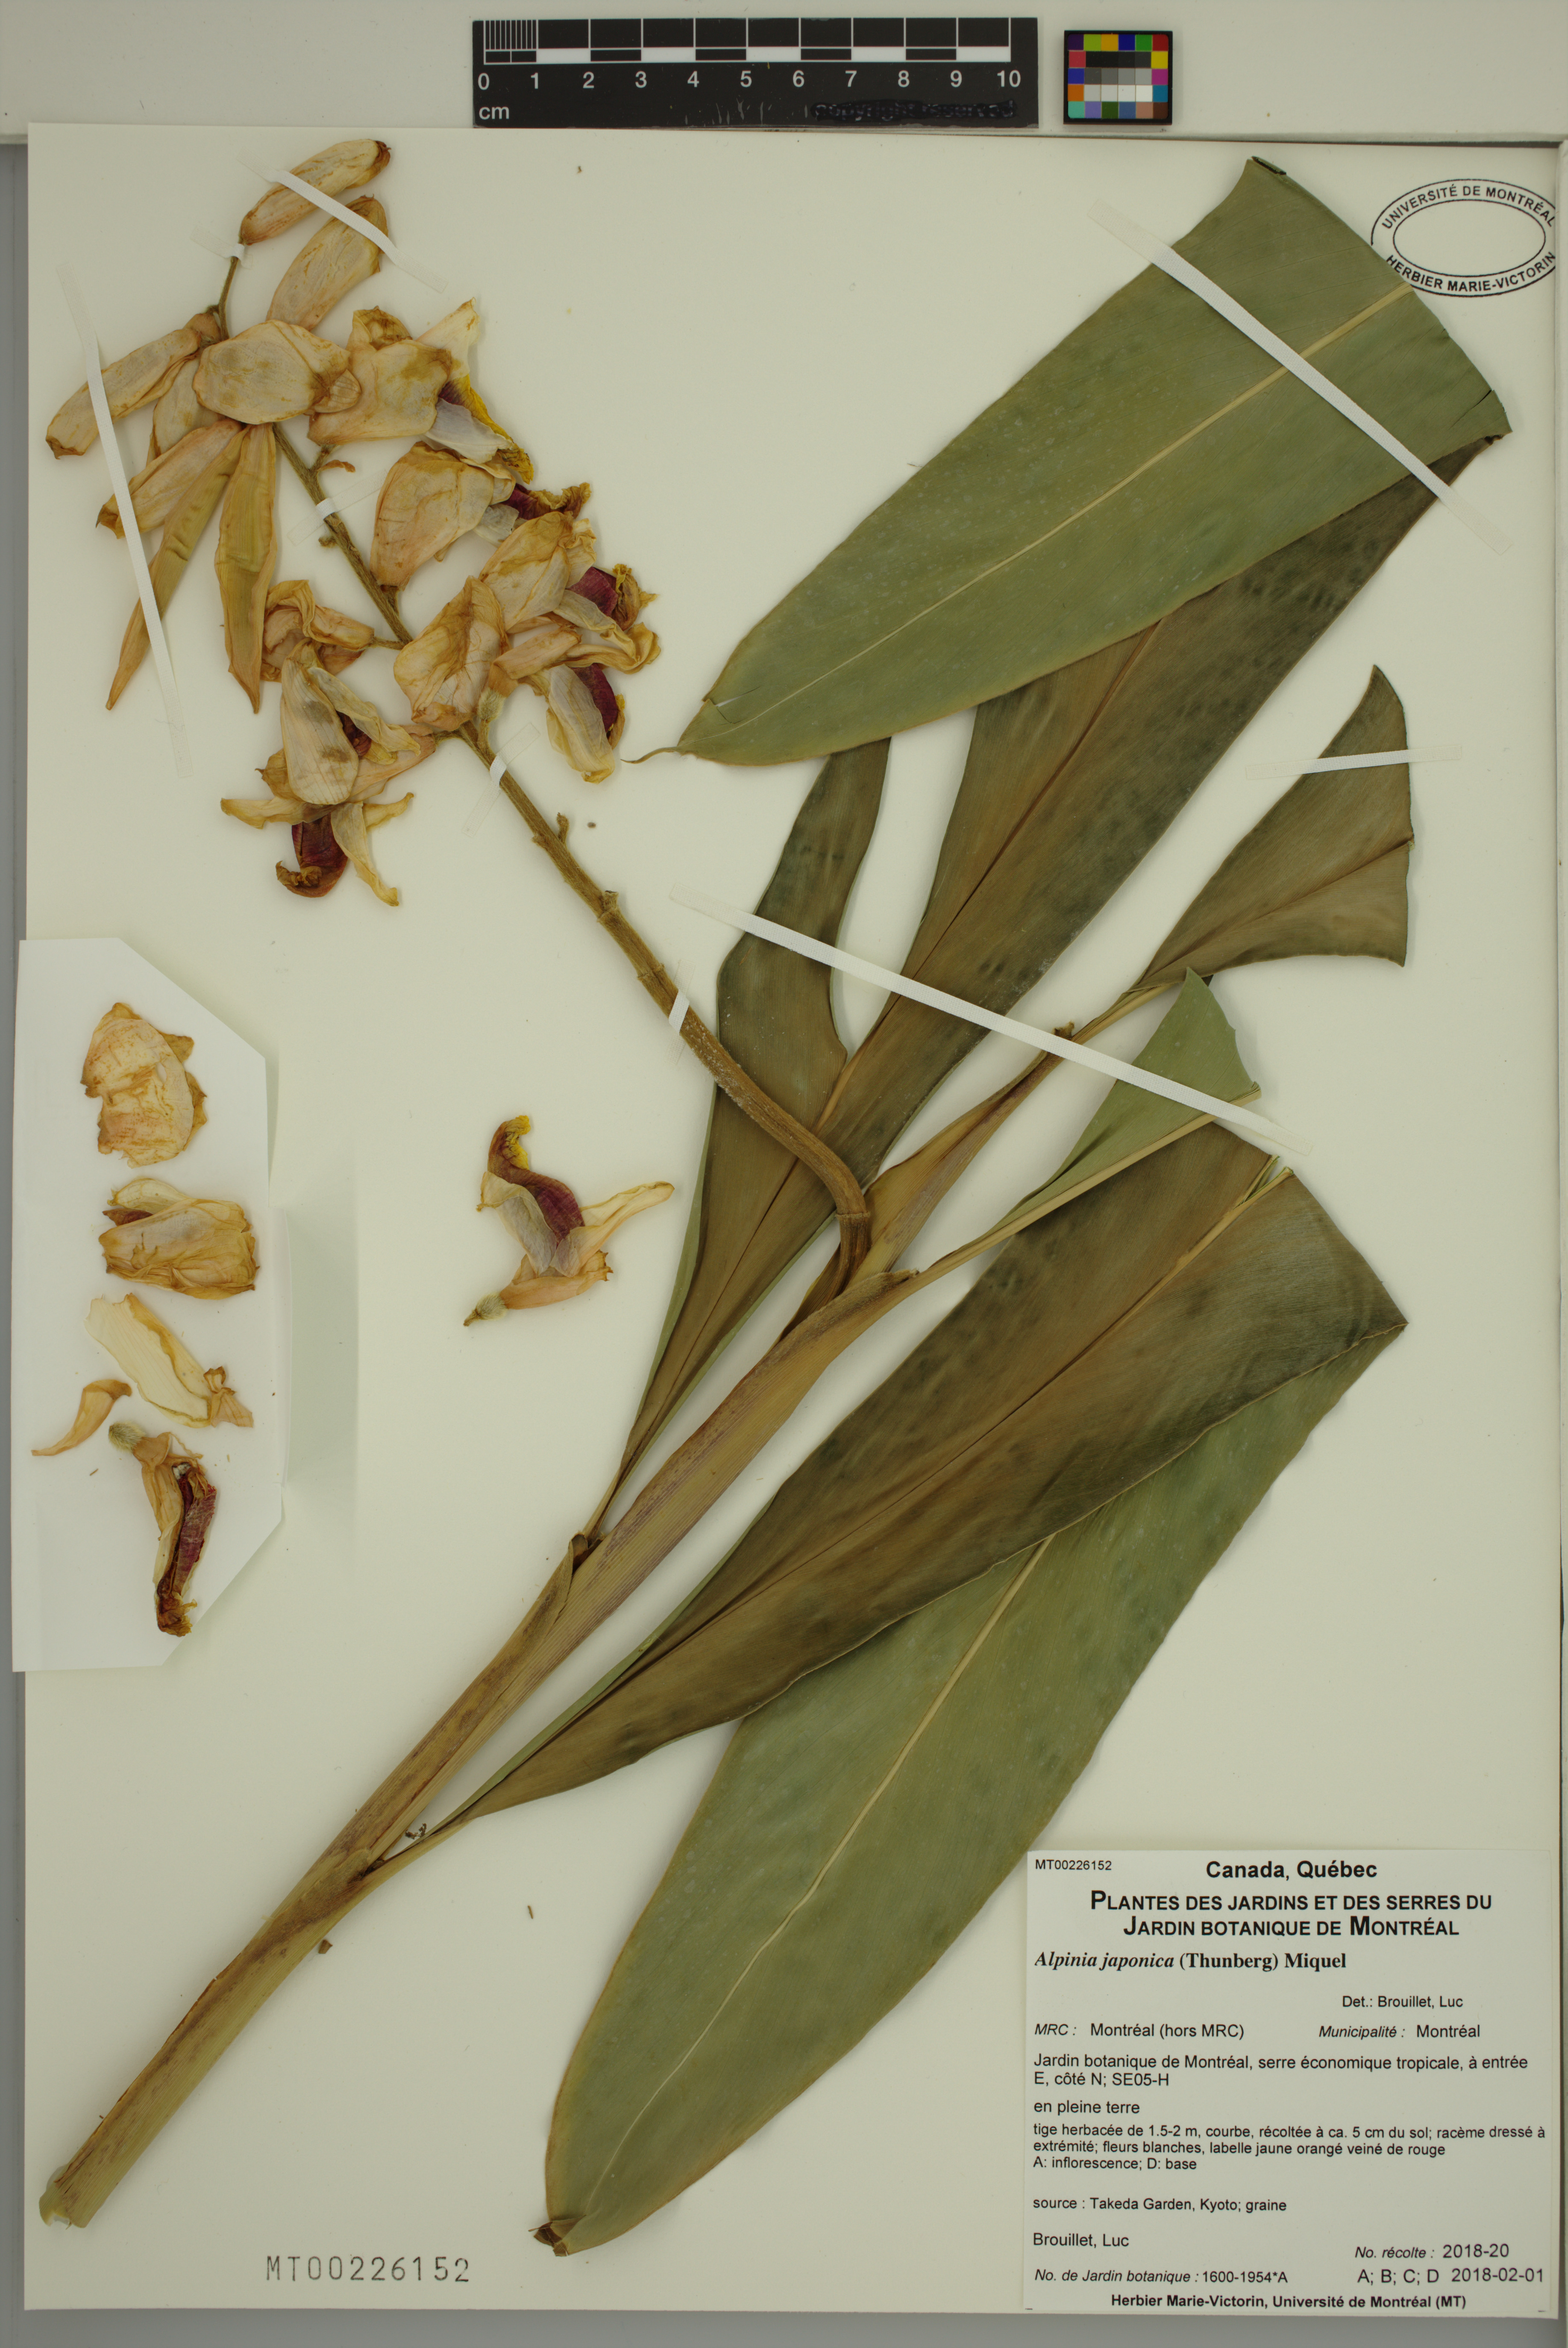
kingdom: Plantae
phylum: Tracheophyta
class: Liliopsida
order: Zingiberales
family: Zingiberaceae
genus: Alpinia
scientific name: Alpinia japonica
